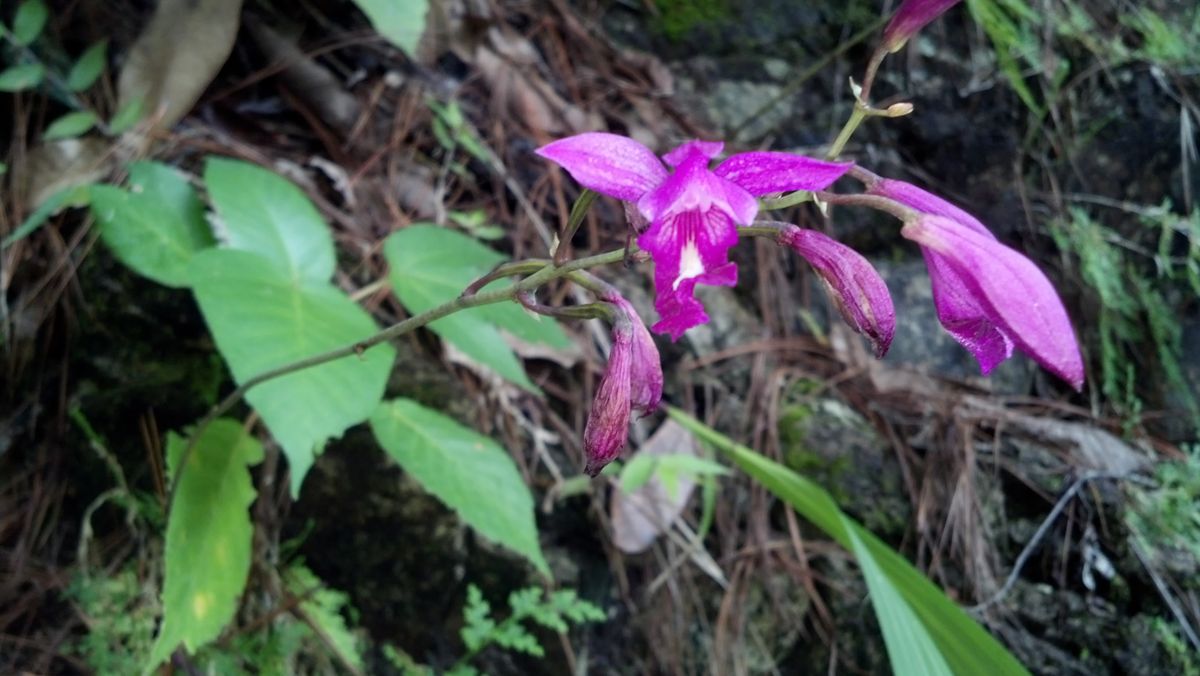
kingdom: Plantae
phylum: Tracheophyta
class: Liliopsida
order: Asparagales
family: Orchidaceae
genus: Bletia
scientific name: Bletia campanulata
